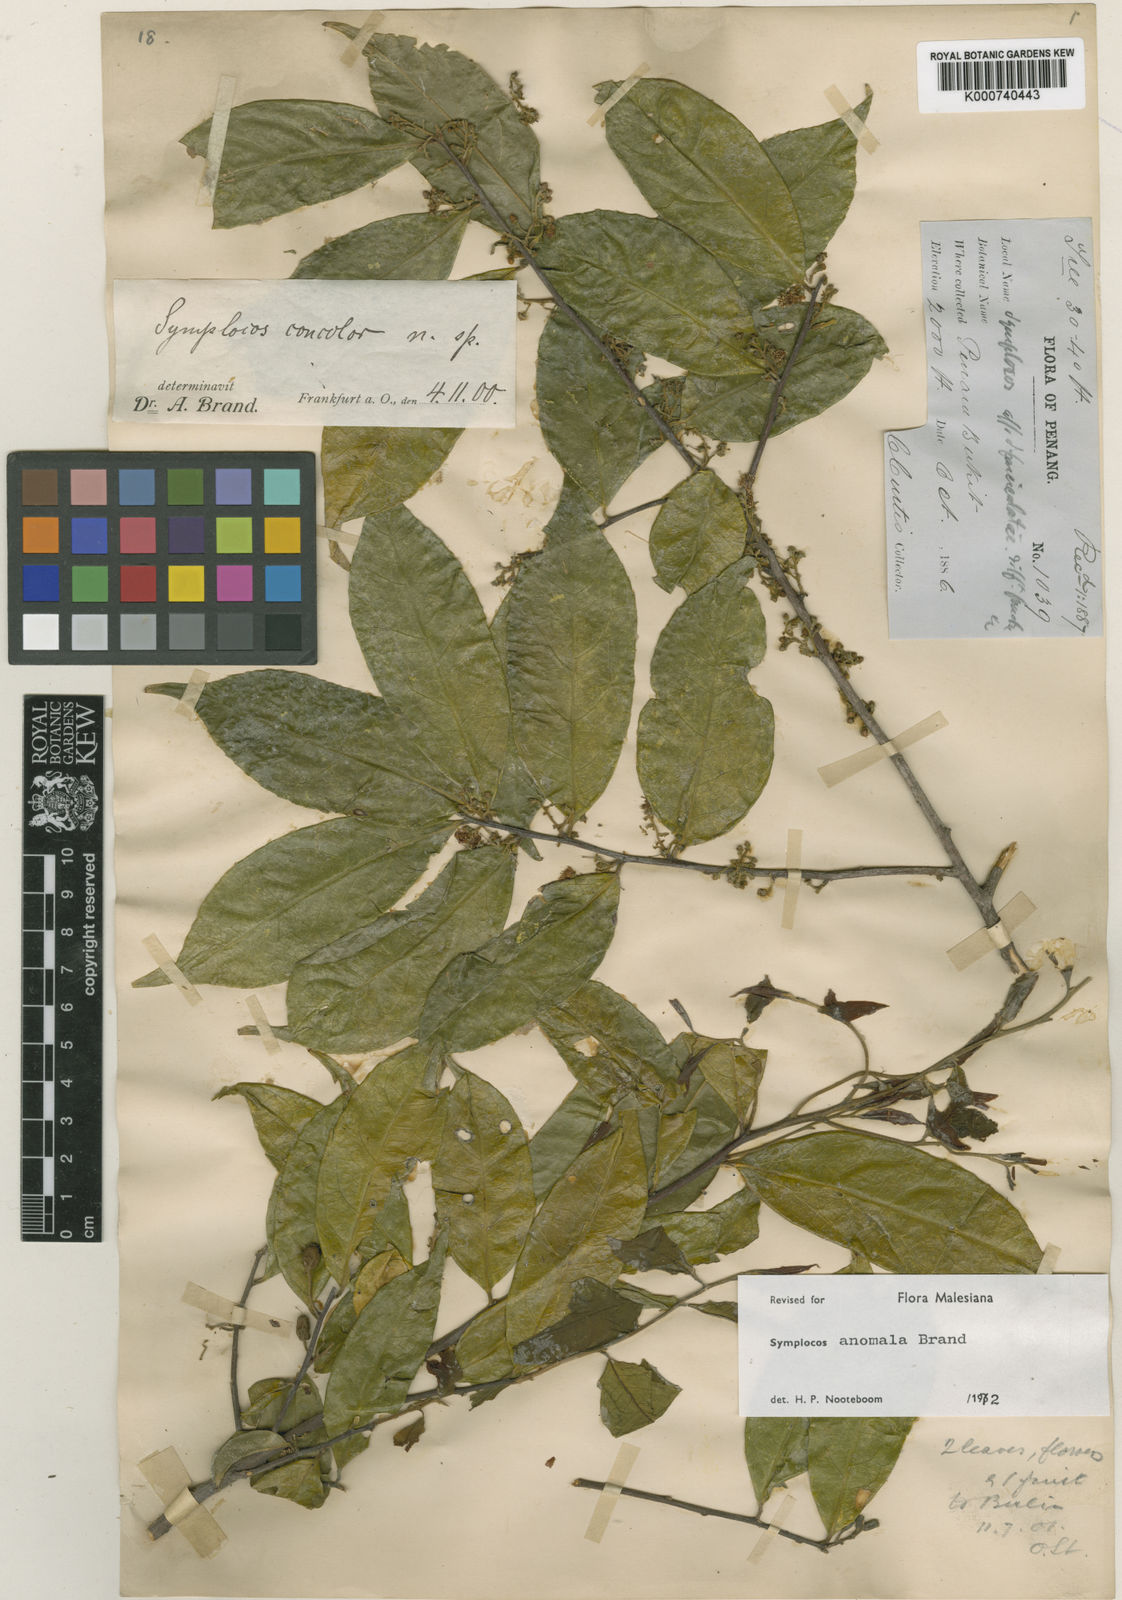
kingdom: Plantae
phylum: Tracheophyta
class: Magnoliopsida
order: Ericales
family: Symplocaceae
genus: Symplocos
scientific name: Symplocos anomala
